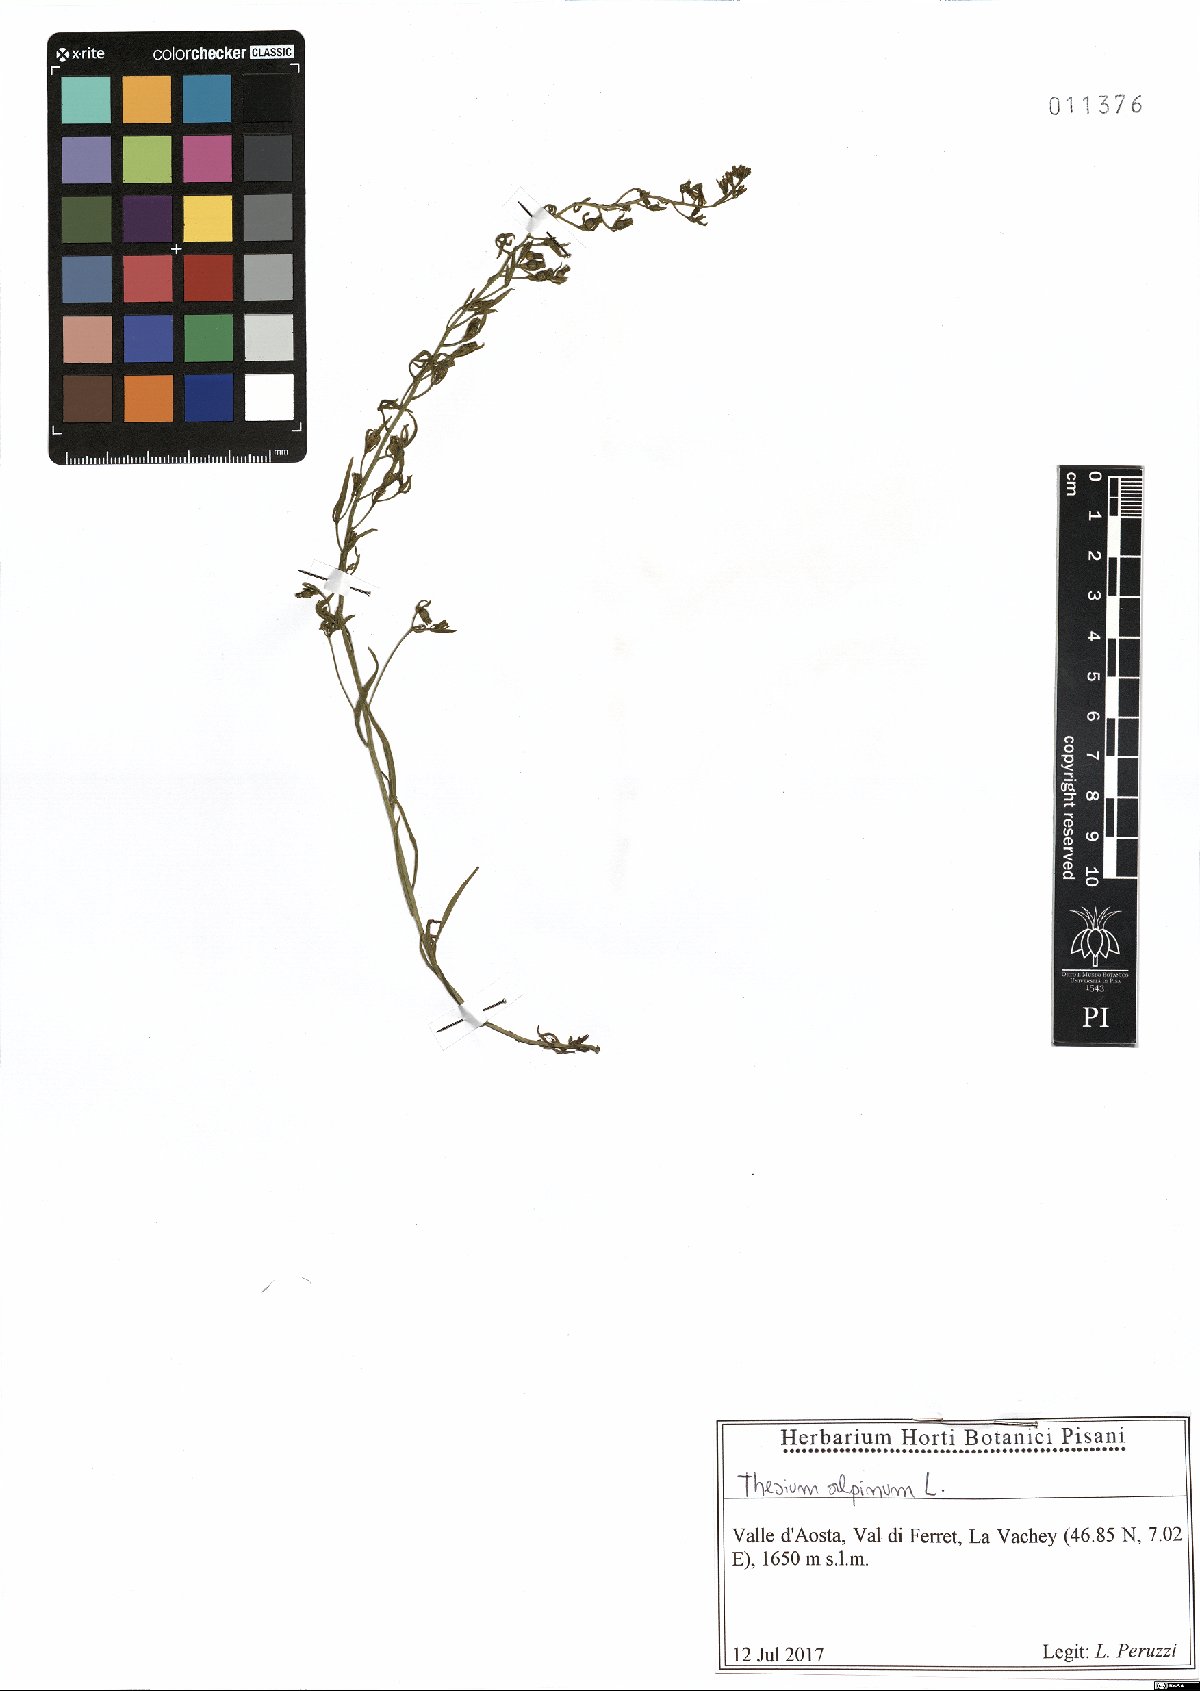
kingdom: Plantae
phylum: Tracheophyta
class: Magnoliopsida
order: Santalales
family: Thesiaceae
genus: Thesium
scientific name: Thesium alpinum
